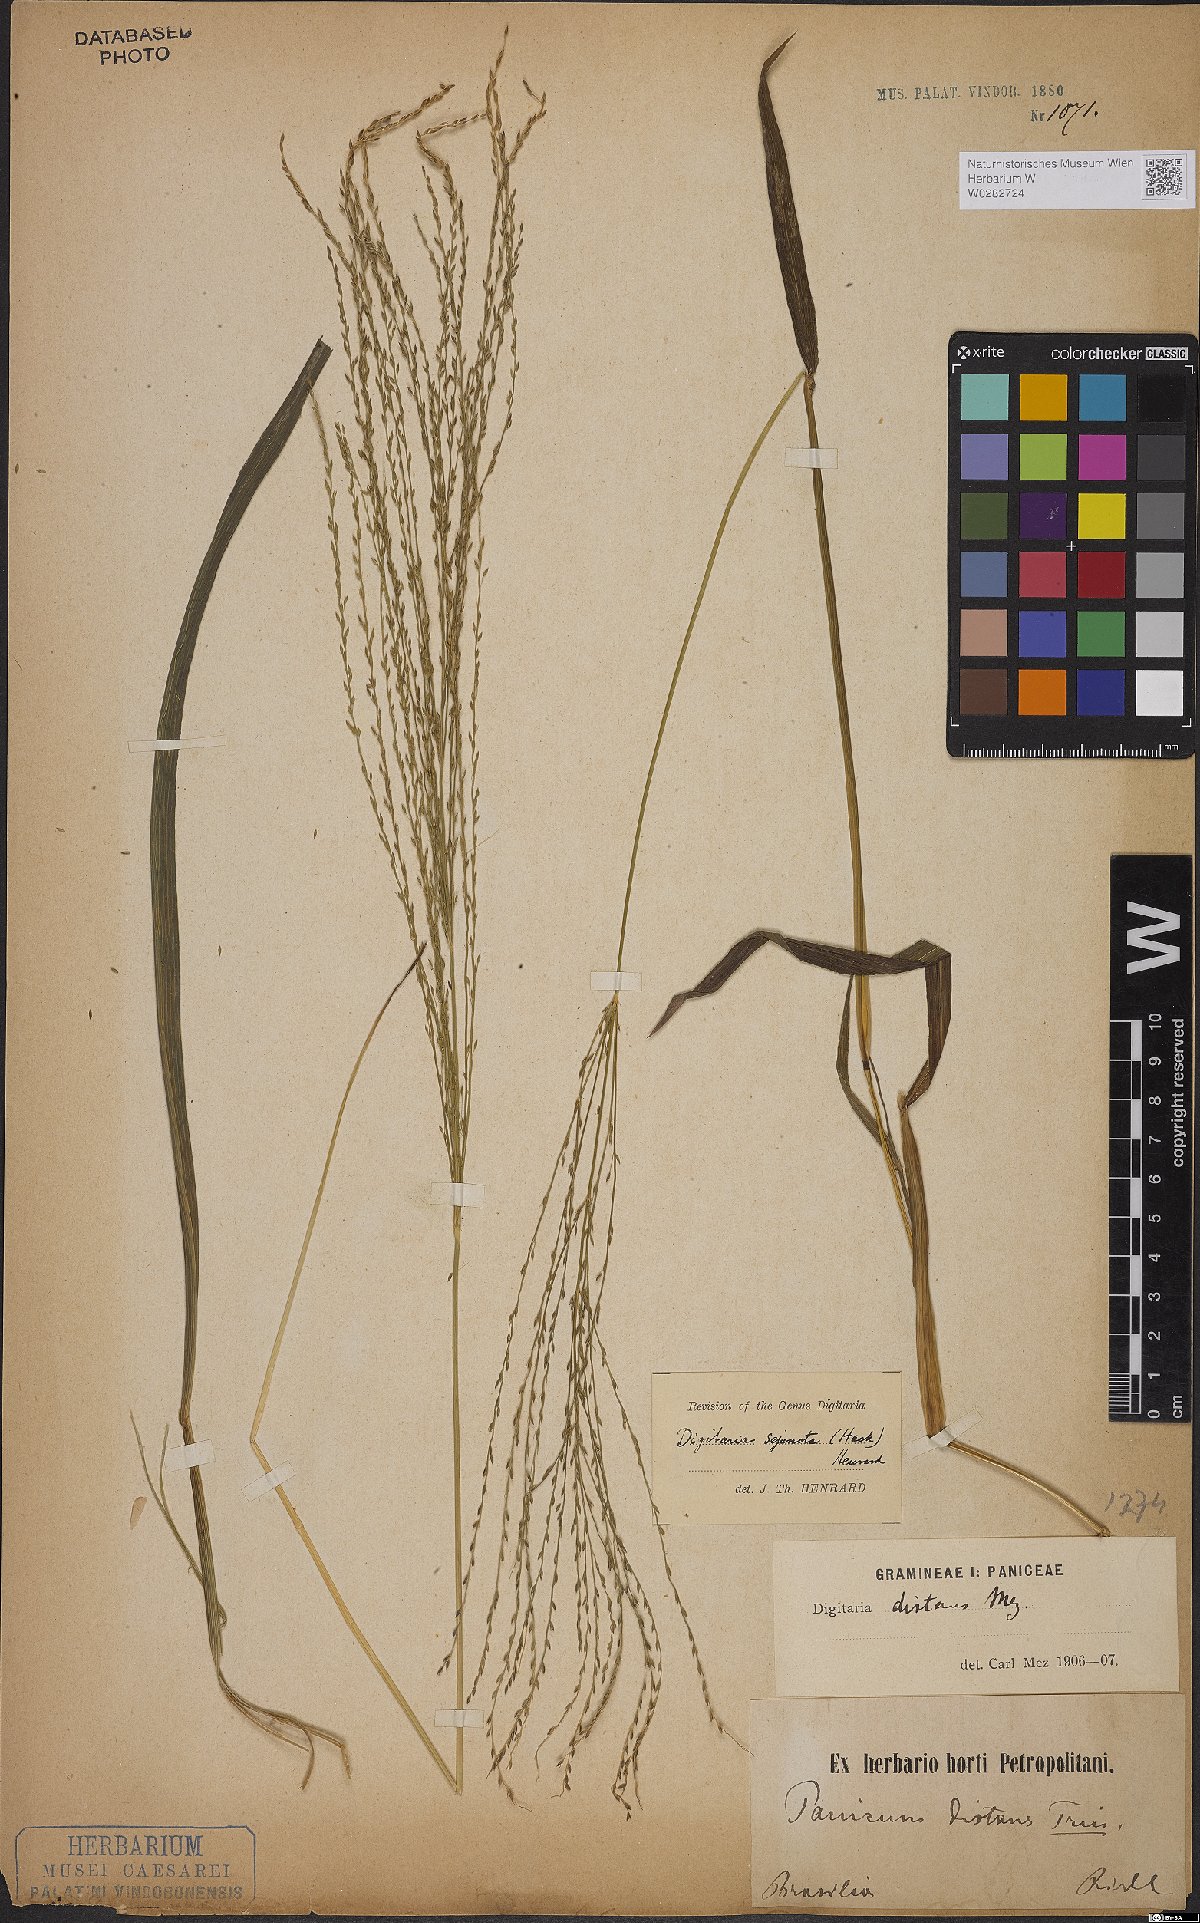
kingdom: Plantae
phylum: Tracheophyta
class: Liliopsida
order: Poales
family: Poaceae
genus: Digitaria
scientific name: Digitaria sejuncta
